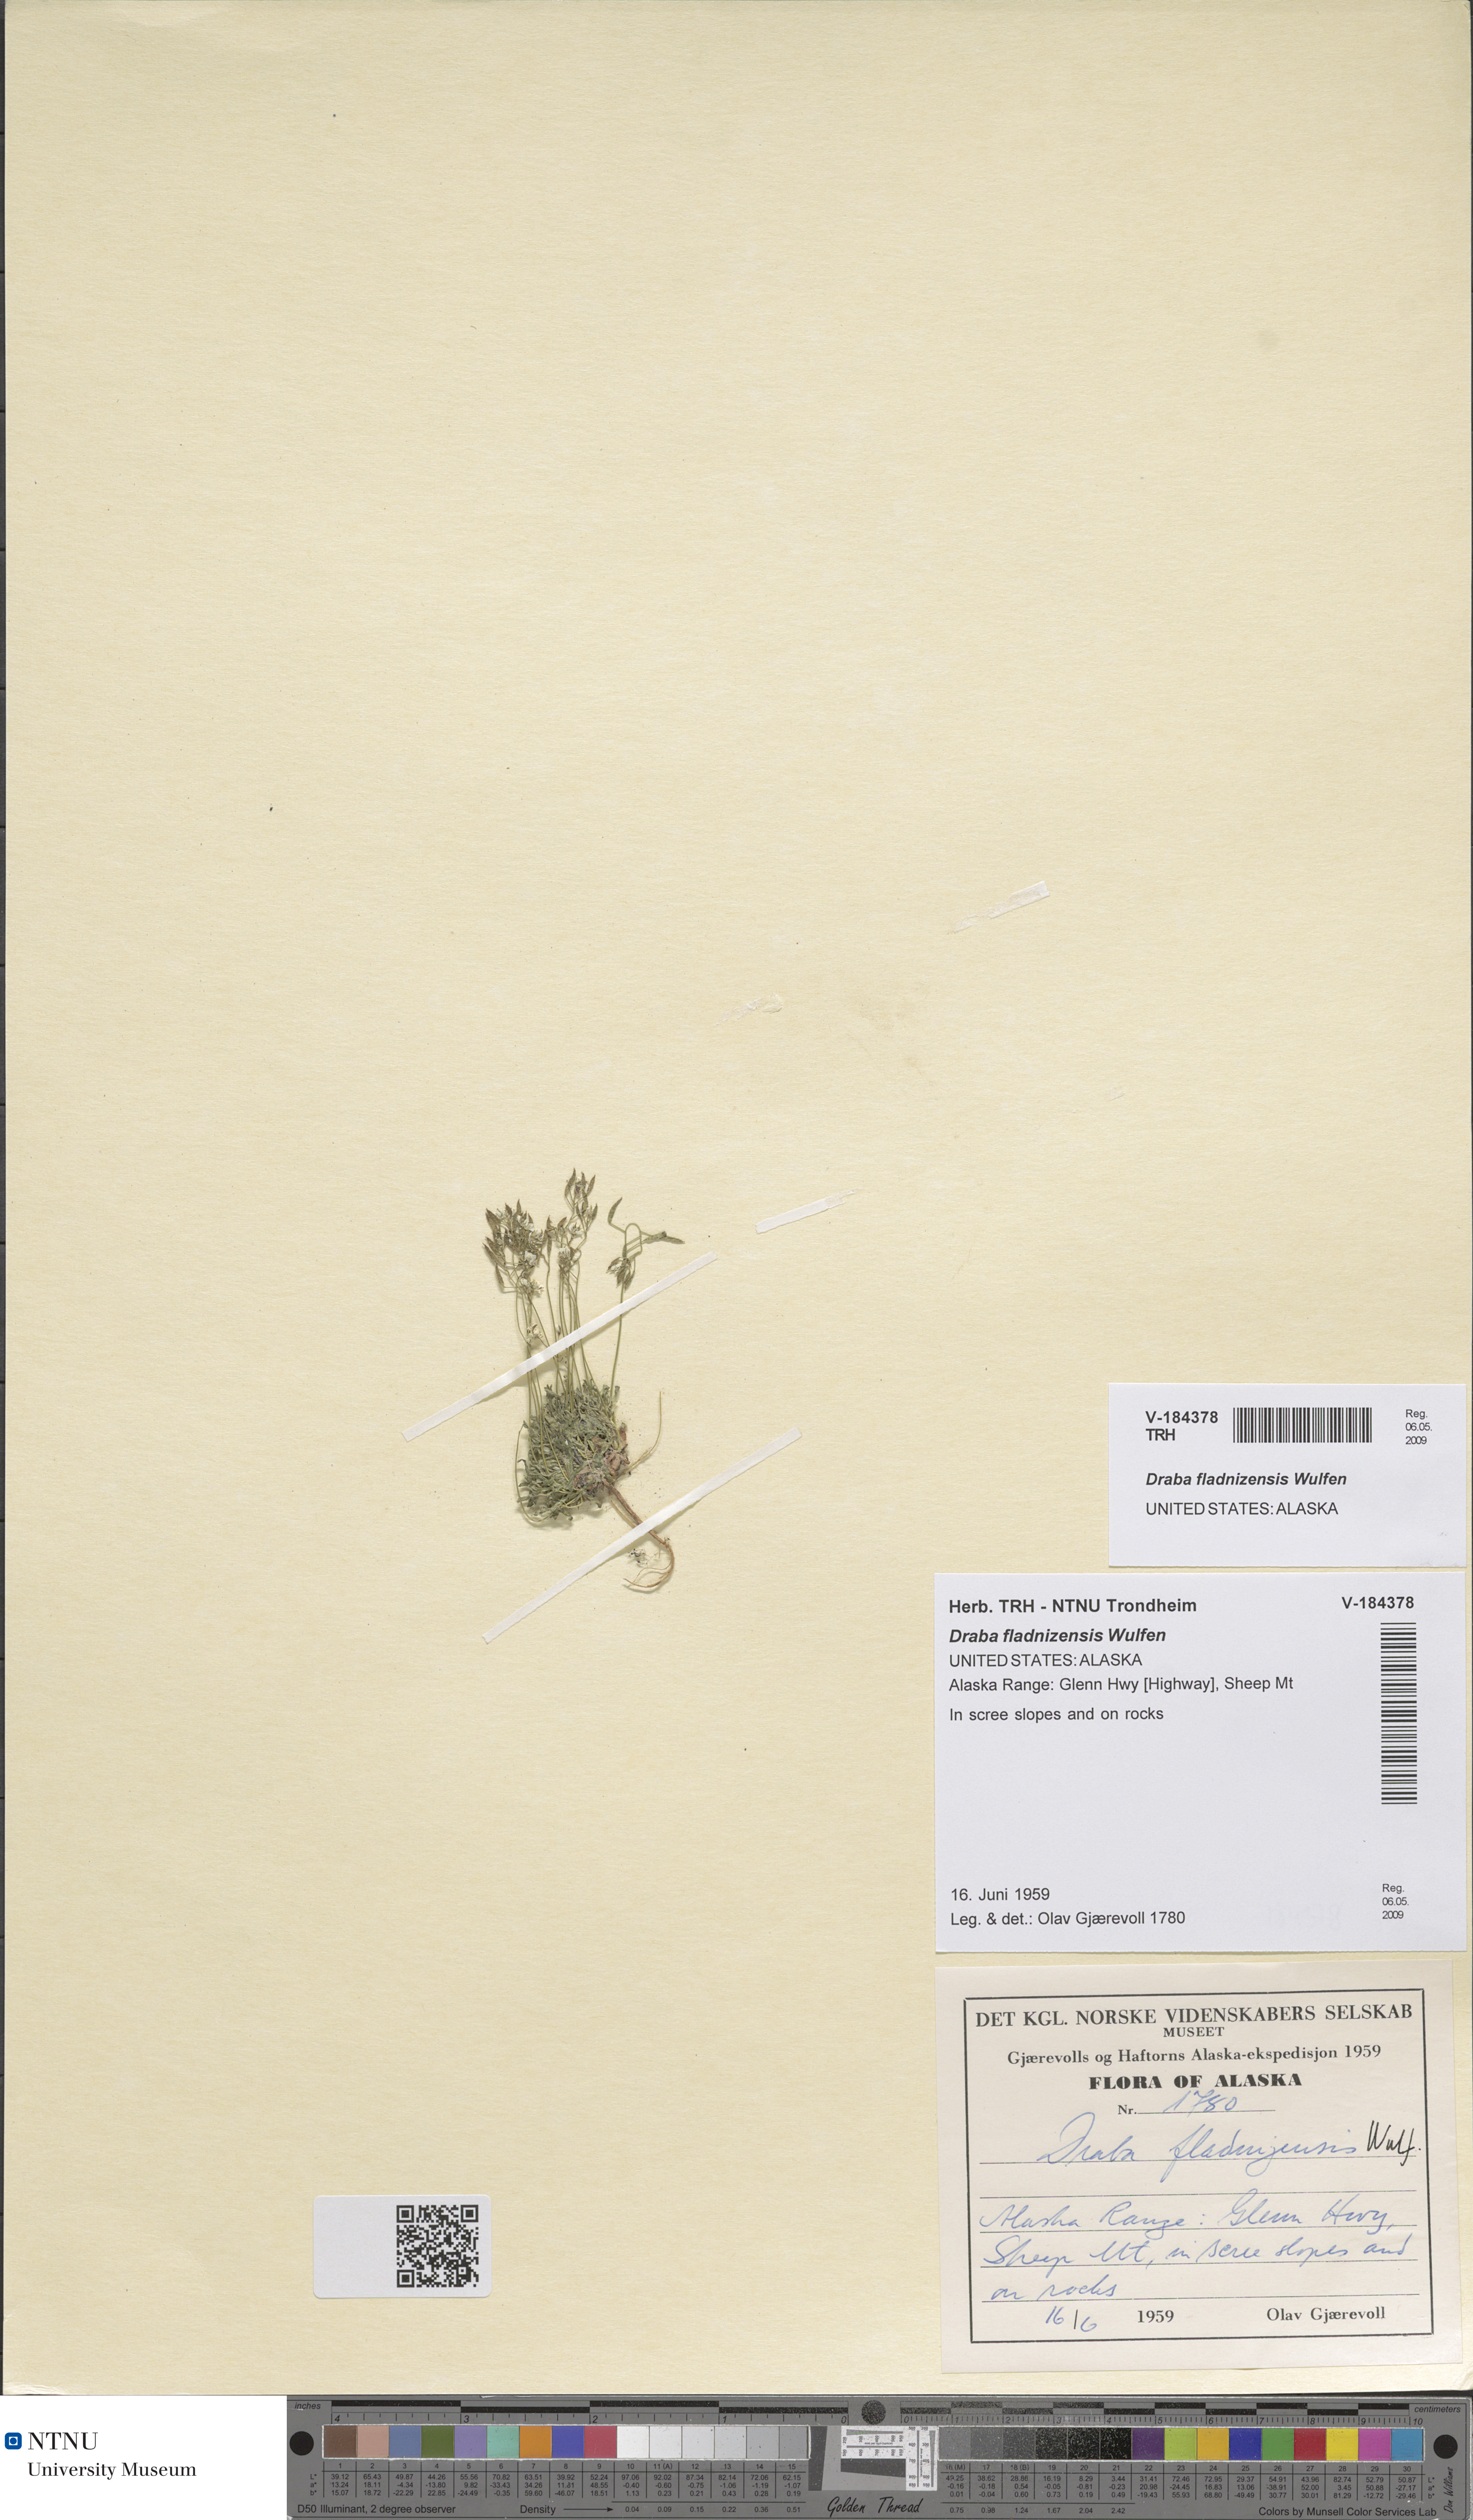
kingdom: Plantae
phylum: Tracheophyta
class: Magnoliopsida
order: Brassicales
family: Brassicaceae
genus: Draba
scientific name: Draba fladnizensis
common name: Austrian draba
